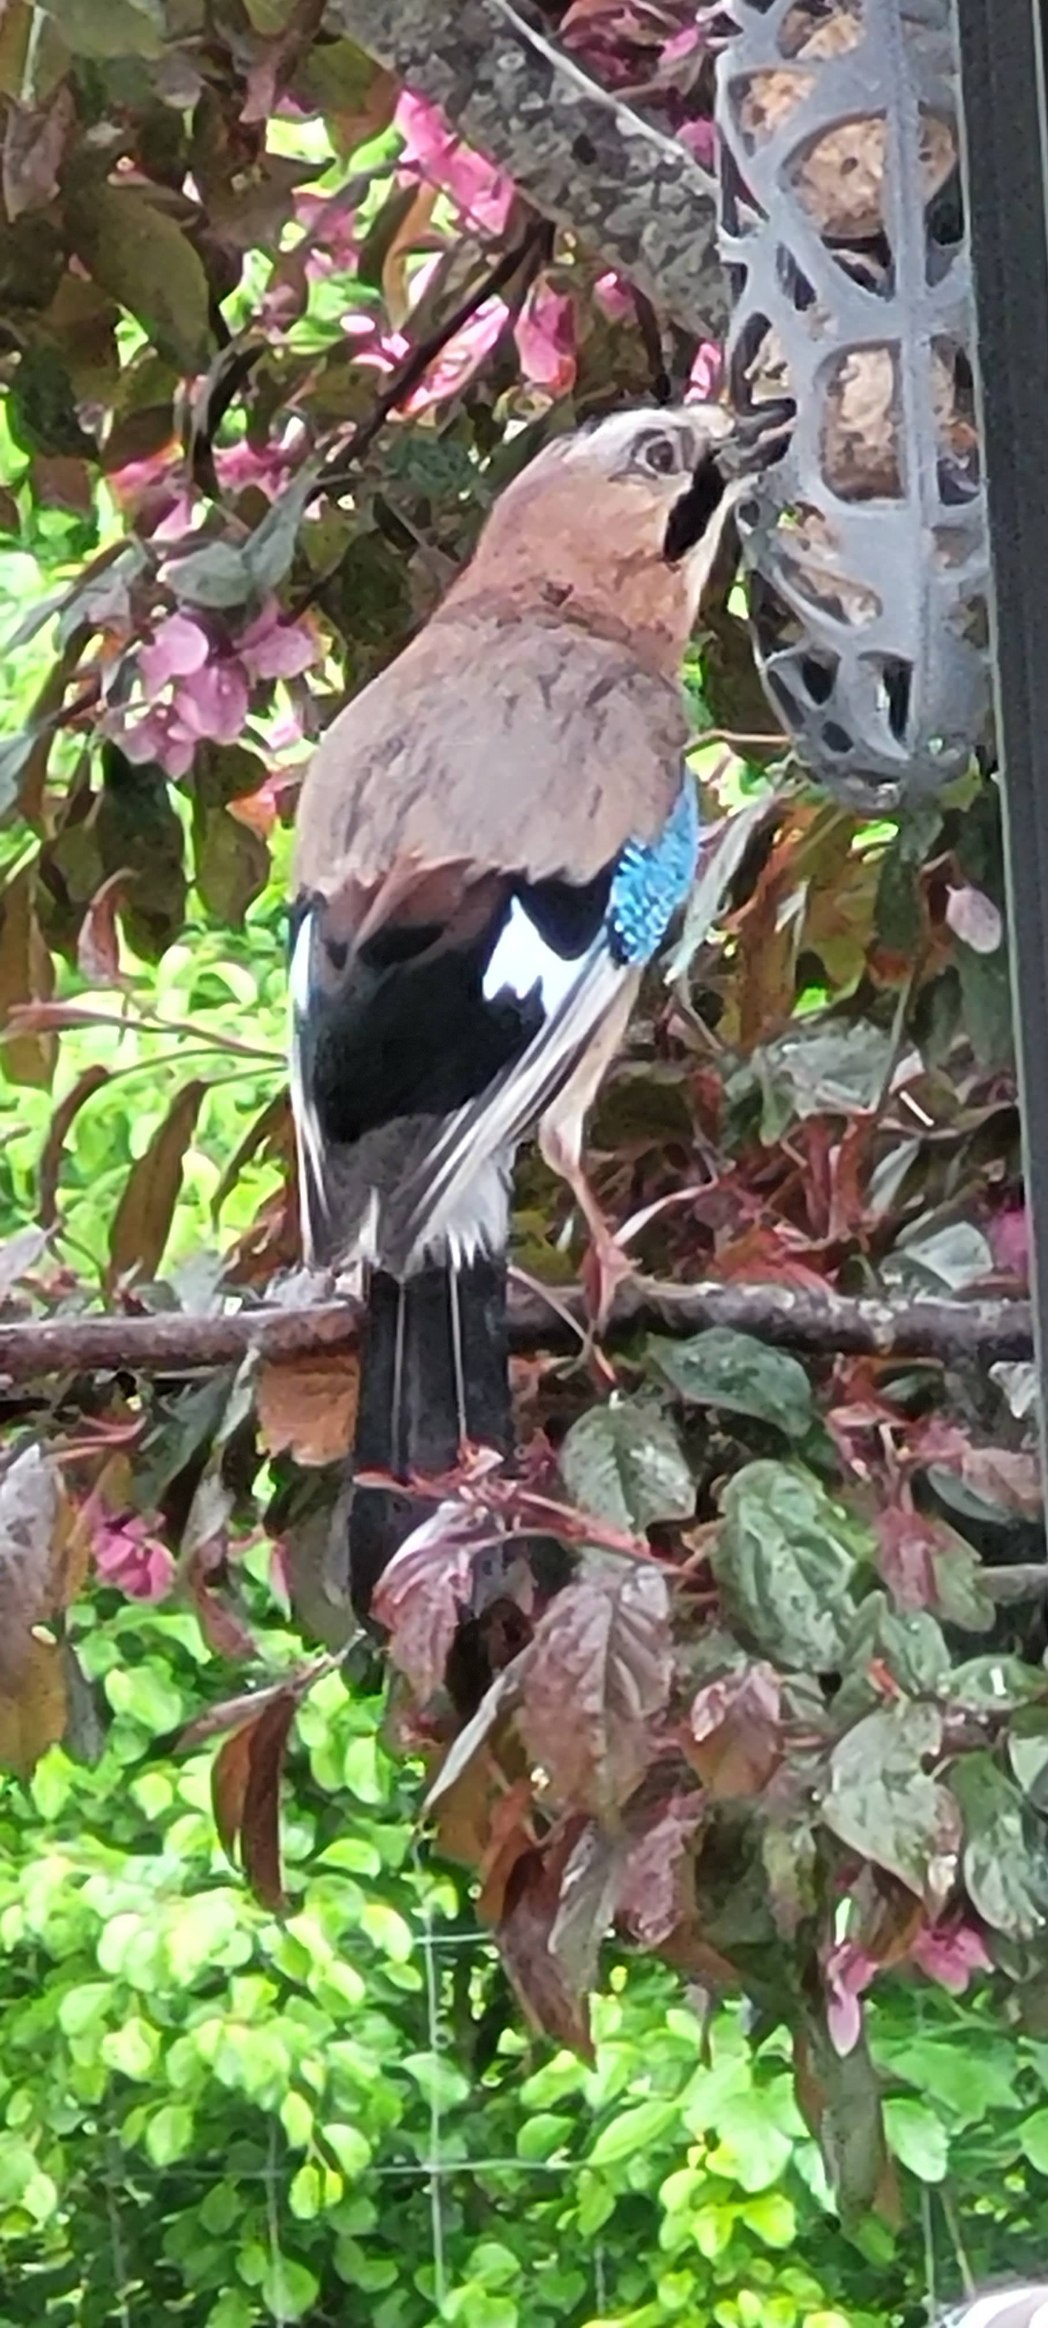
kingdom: Animalia
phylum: Chordata
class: Aves
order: Passeriformes
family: Corvidae
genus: Garrulus
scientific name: Garrulus glandarius
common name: Skovskade
